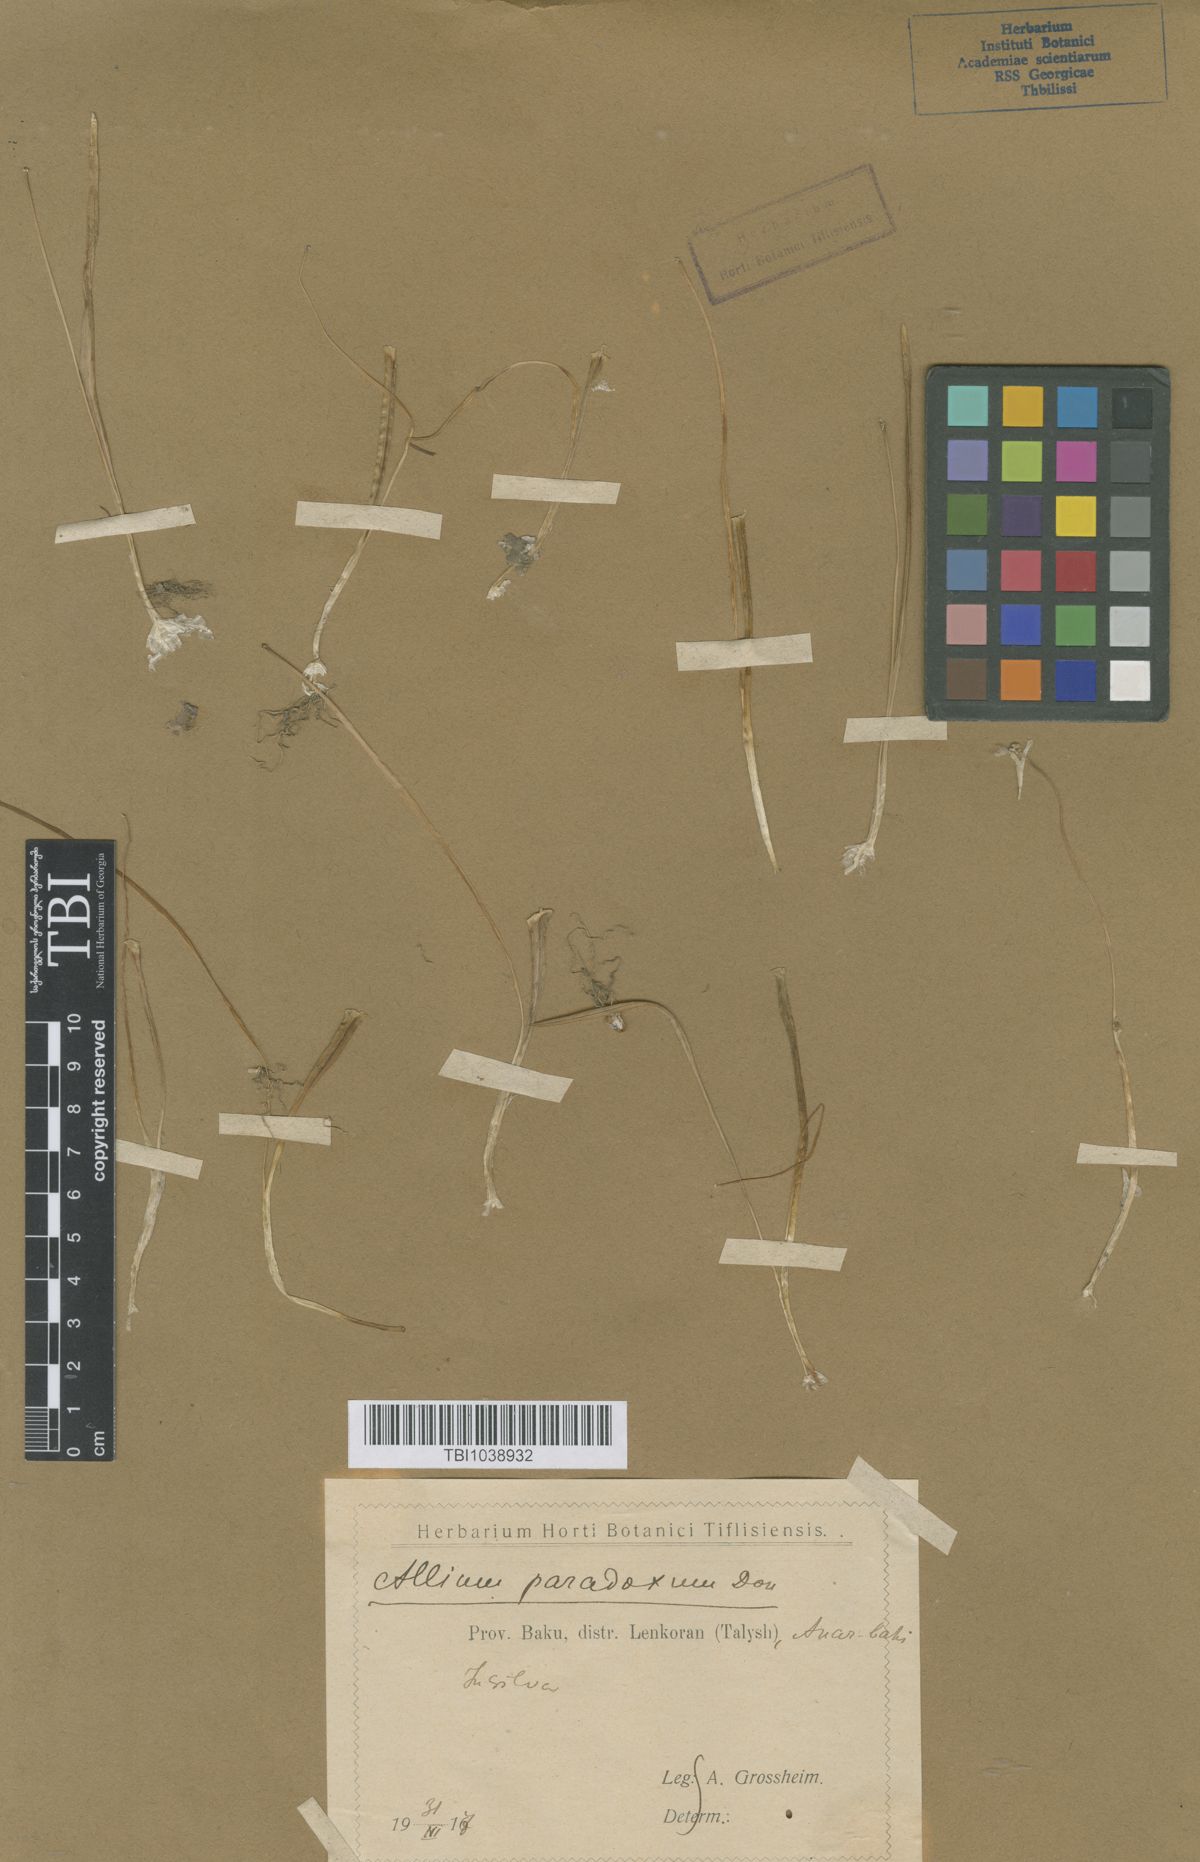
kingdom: Plantae
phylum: Tracheophyta
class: Liliopsida
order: Asparagales
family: Amaryllidaceae
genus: Allium
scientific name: Allium paradoxum
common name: Few-flowered garlic
